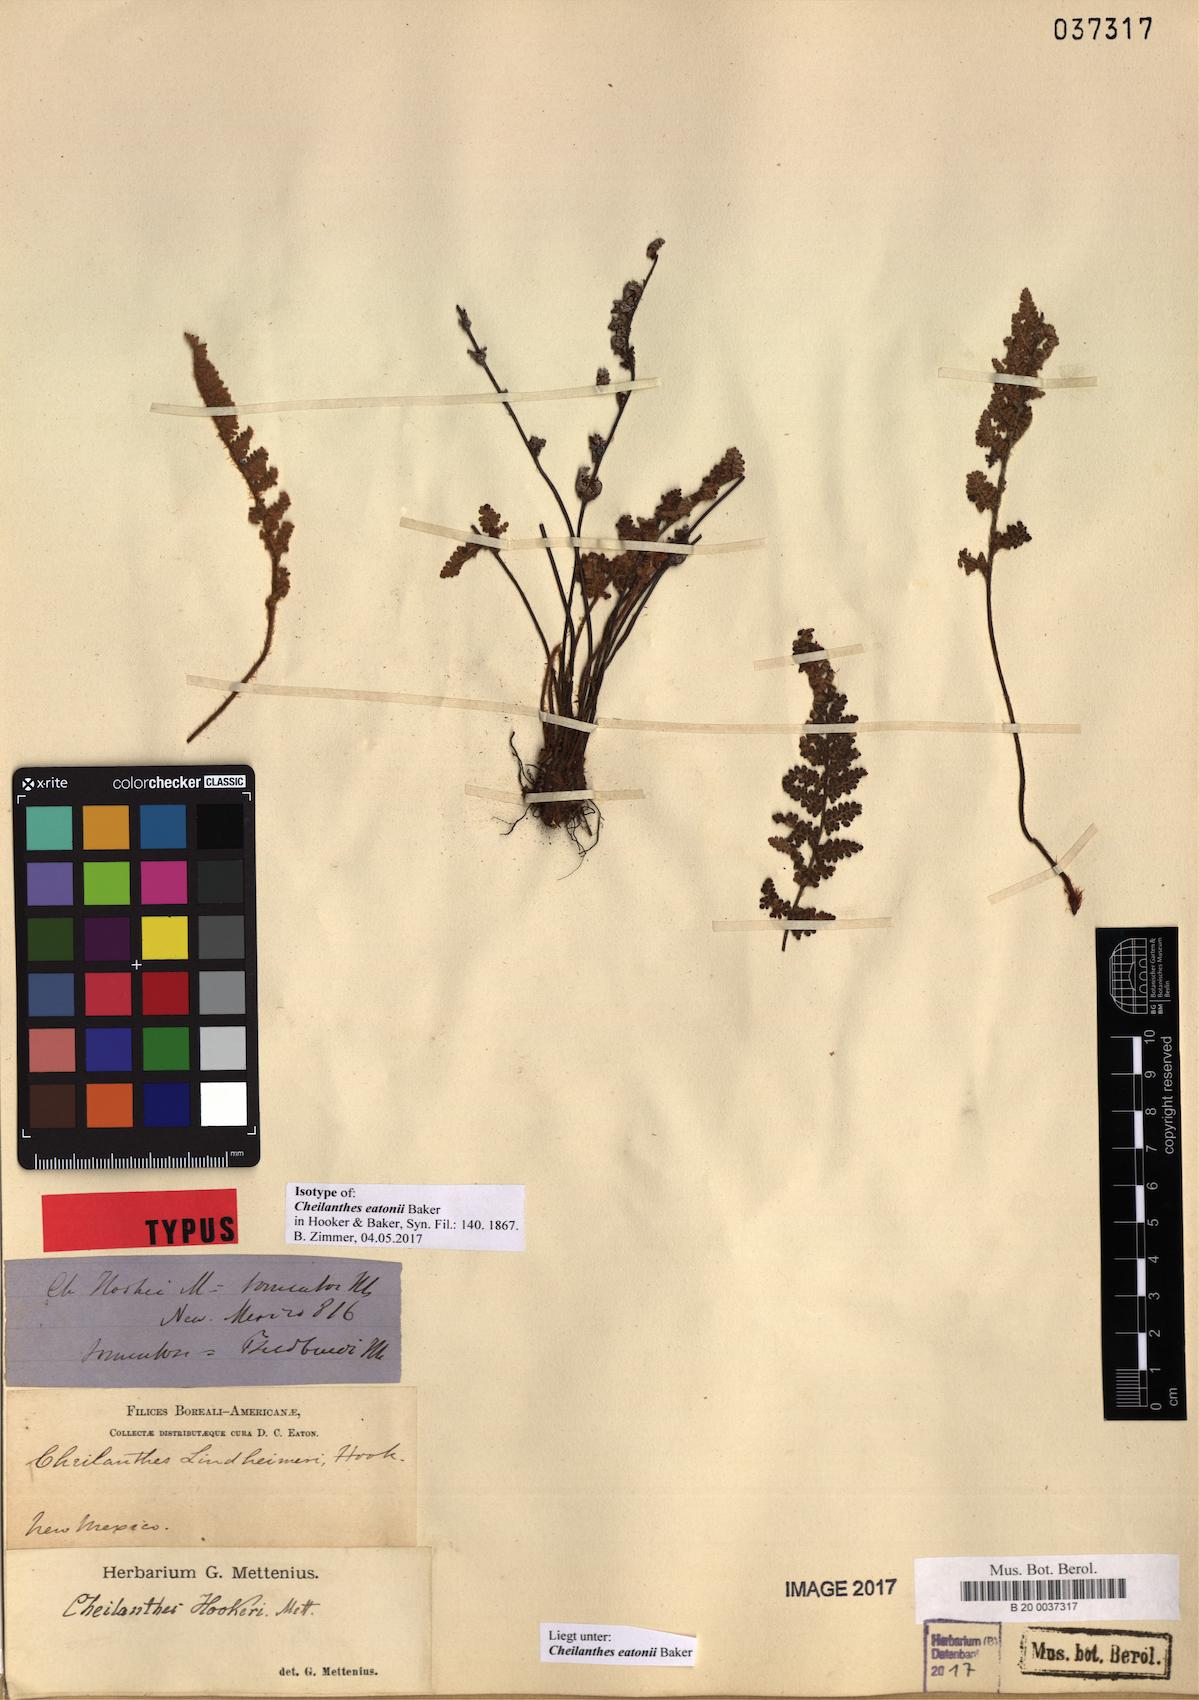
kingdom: Plantae
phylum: Tracheophyta
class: Polypodiopsida
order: Polypodiales
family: Pteridaceae
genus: Myriopteris
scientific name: Myriopteris rufa
